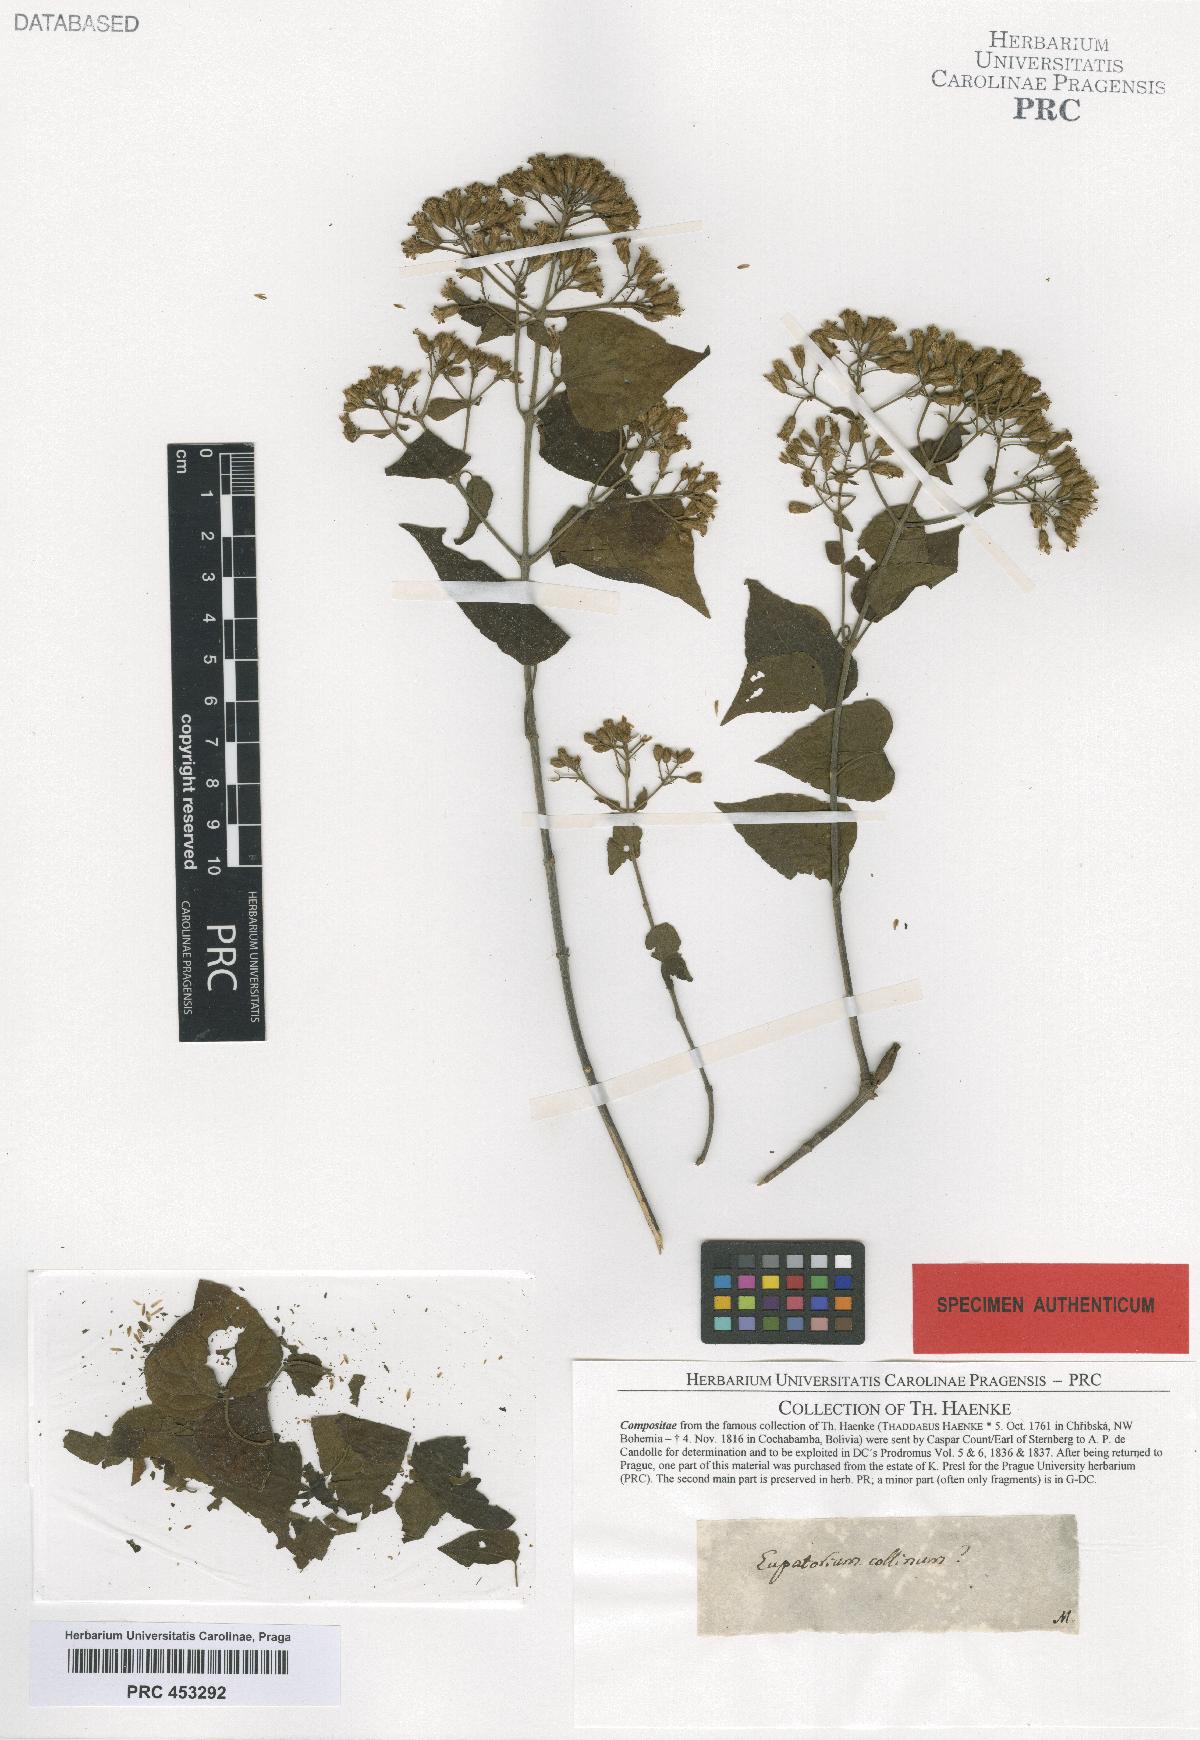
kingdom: Plantae
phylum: Tracheophyta
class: Magnoliopsida
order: Asterales
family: Asteraceae
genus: Chromolaena
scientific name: Chromolaena collina
